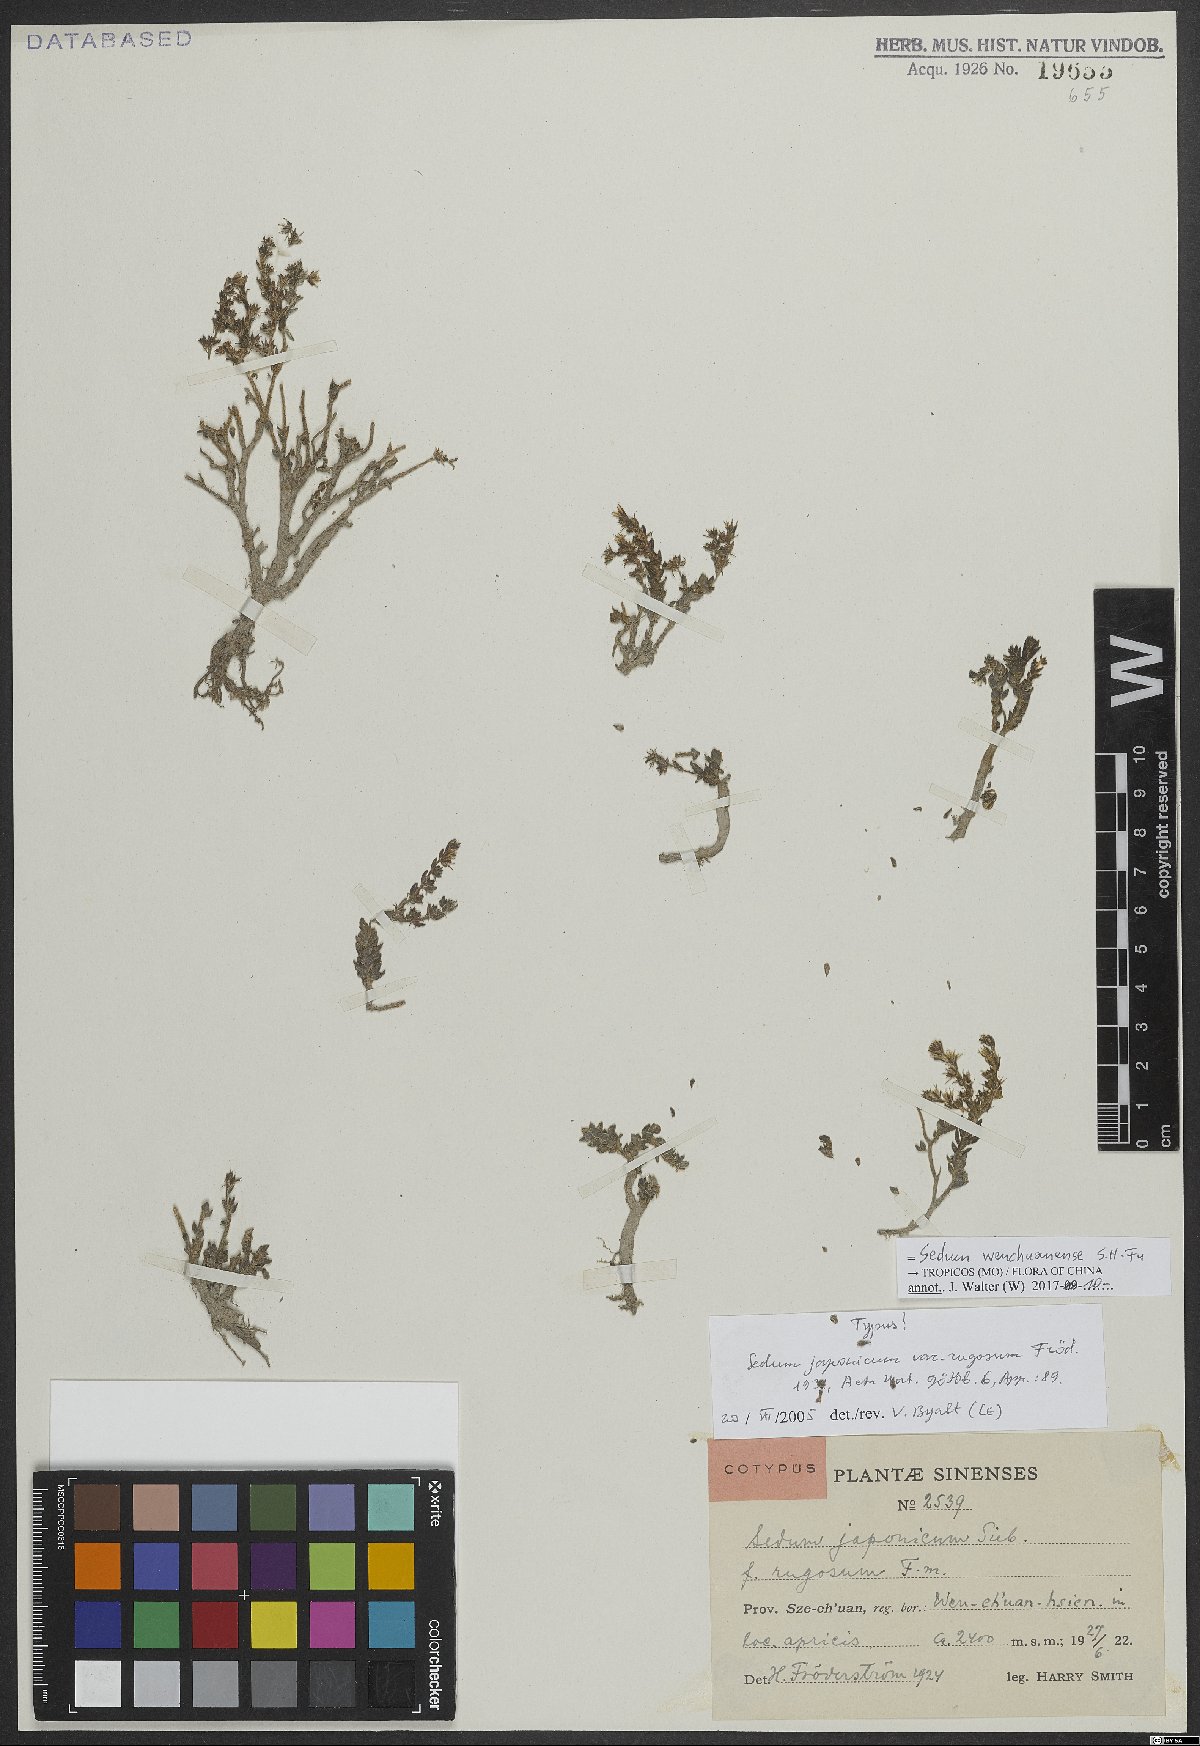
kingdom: Plantae
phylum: Tracheophyta
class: Magnoliopsida
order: Saxifragales
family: Crassulaceae
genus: Sedum
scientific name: Sedum wenchuanense
